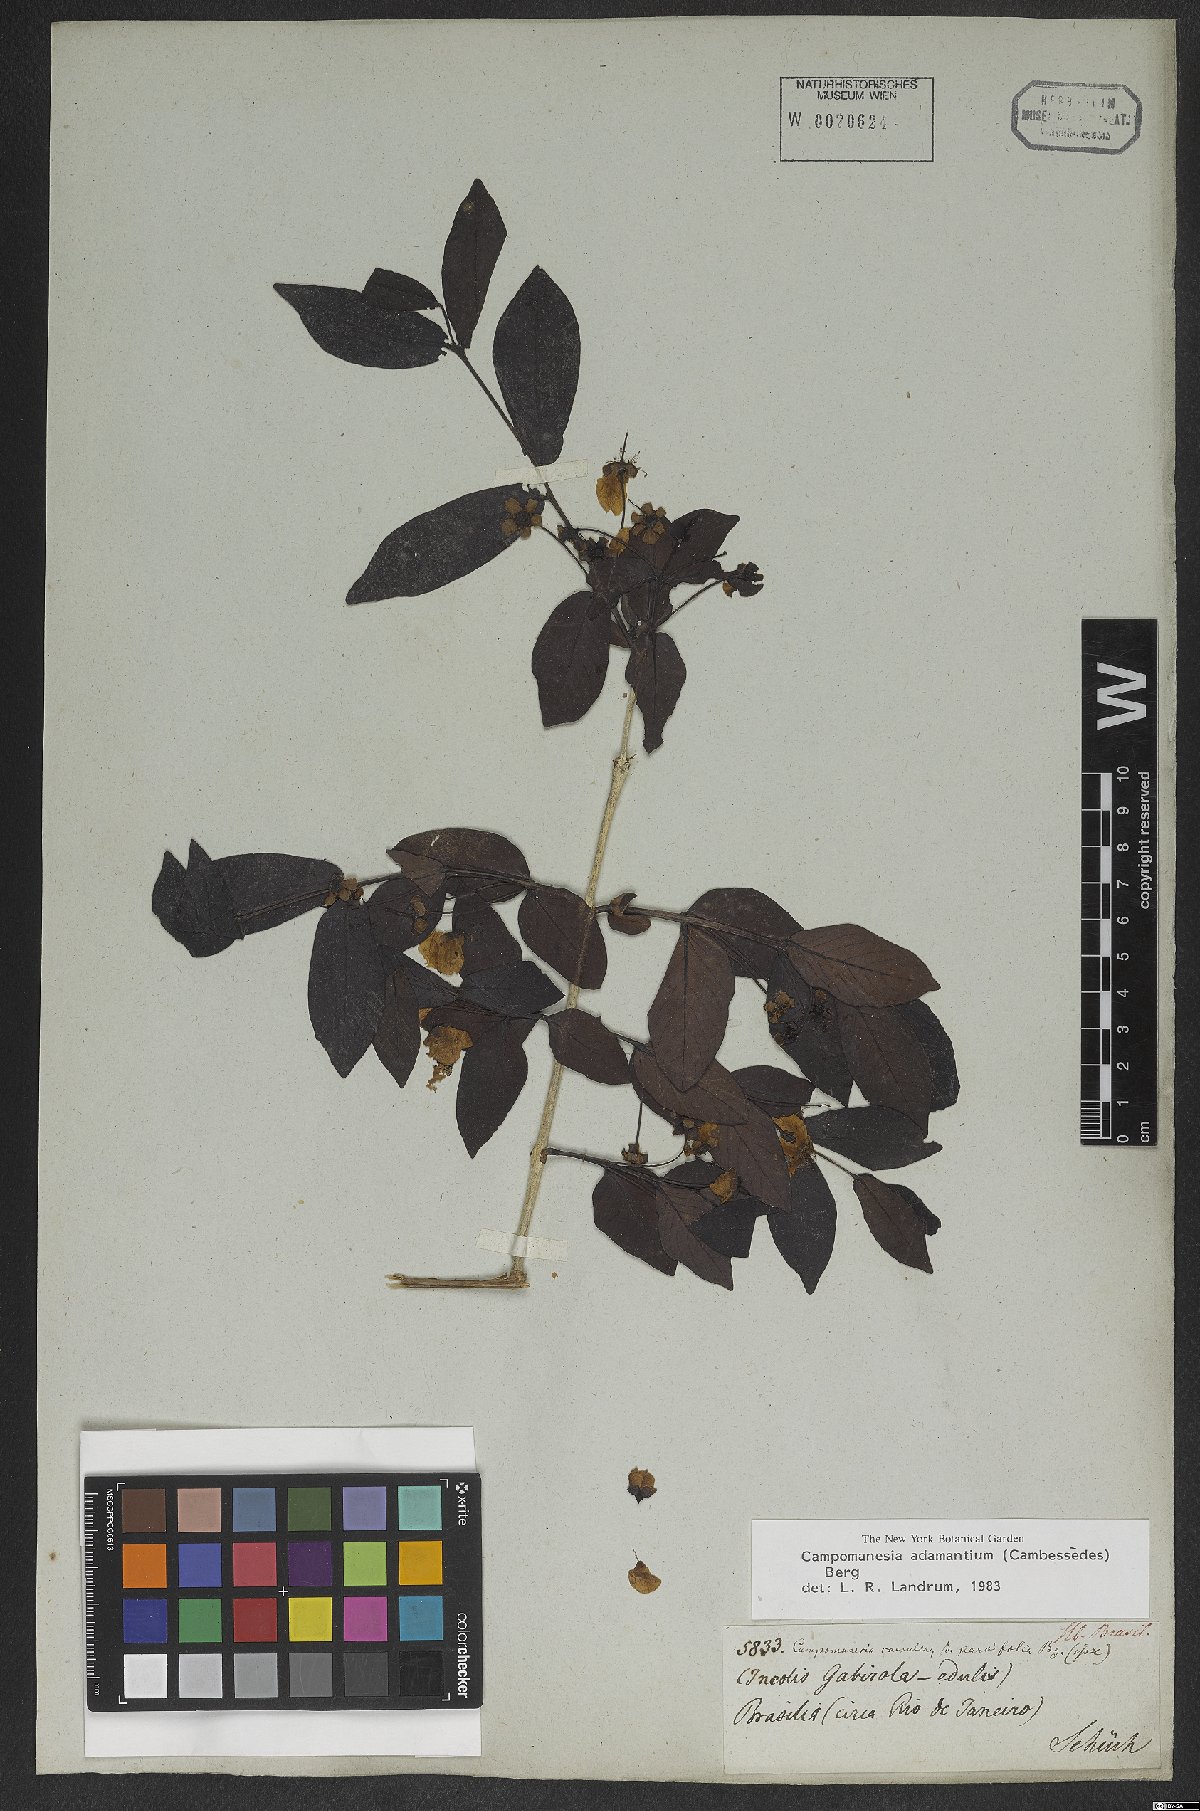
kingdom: Plantae
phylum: Tracheophyta
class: Magnoliopsida
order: Myrtales
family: Myrtaceae
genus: Campomanesia
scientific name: Campomanesia adamantium
